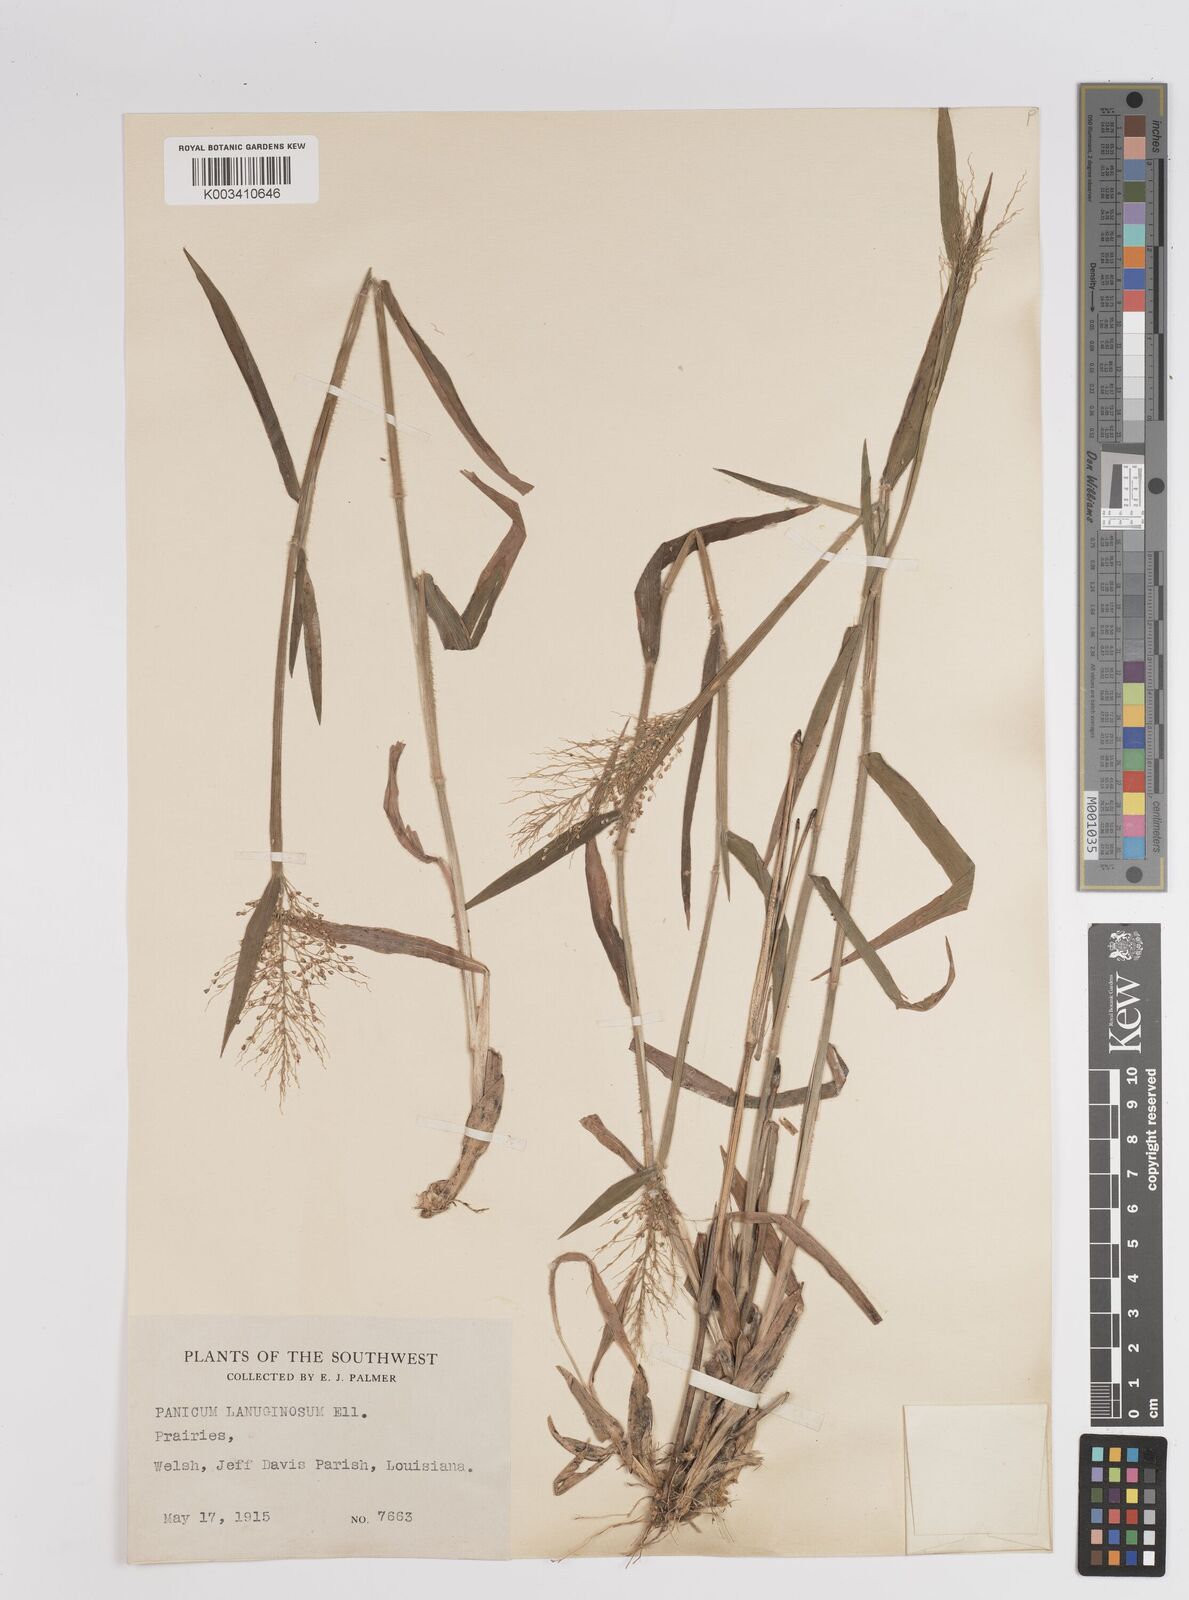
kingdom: Plantae
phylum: Tracheophyta
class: Liliopsida
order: Poales
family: Poaceae
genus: Dichanthelium
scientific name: Dichanthelium lanuginosum
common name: Woolly panicgrass
